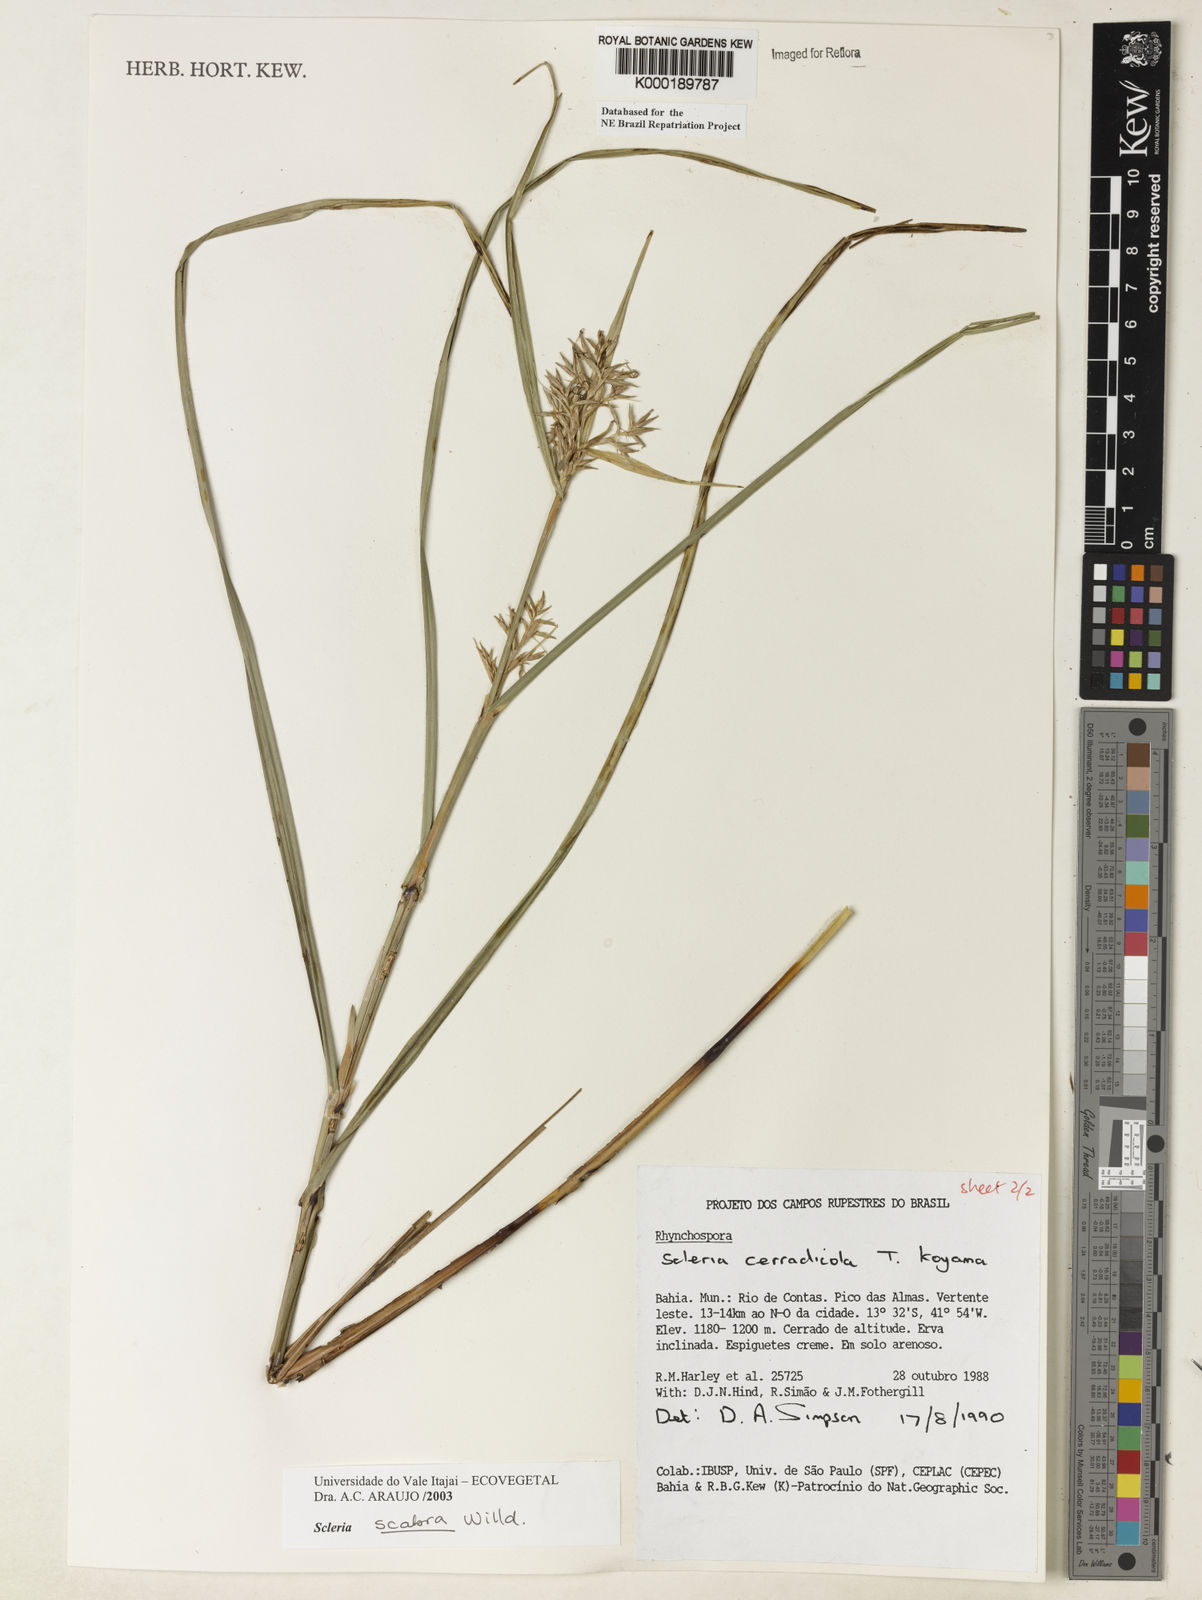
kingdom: Plantae
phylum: Tracheophyta
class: Liliopsida
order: Poales
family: Cyperaceae
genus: Scleria
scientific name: Scleria scabra
